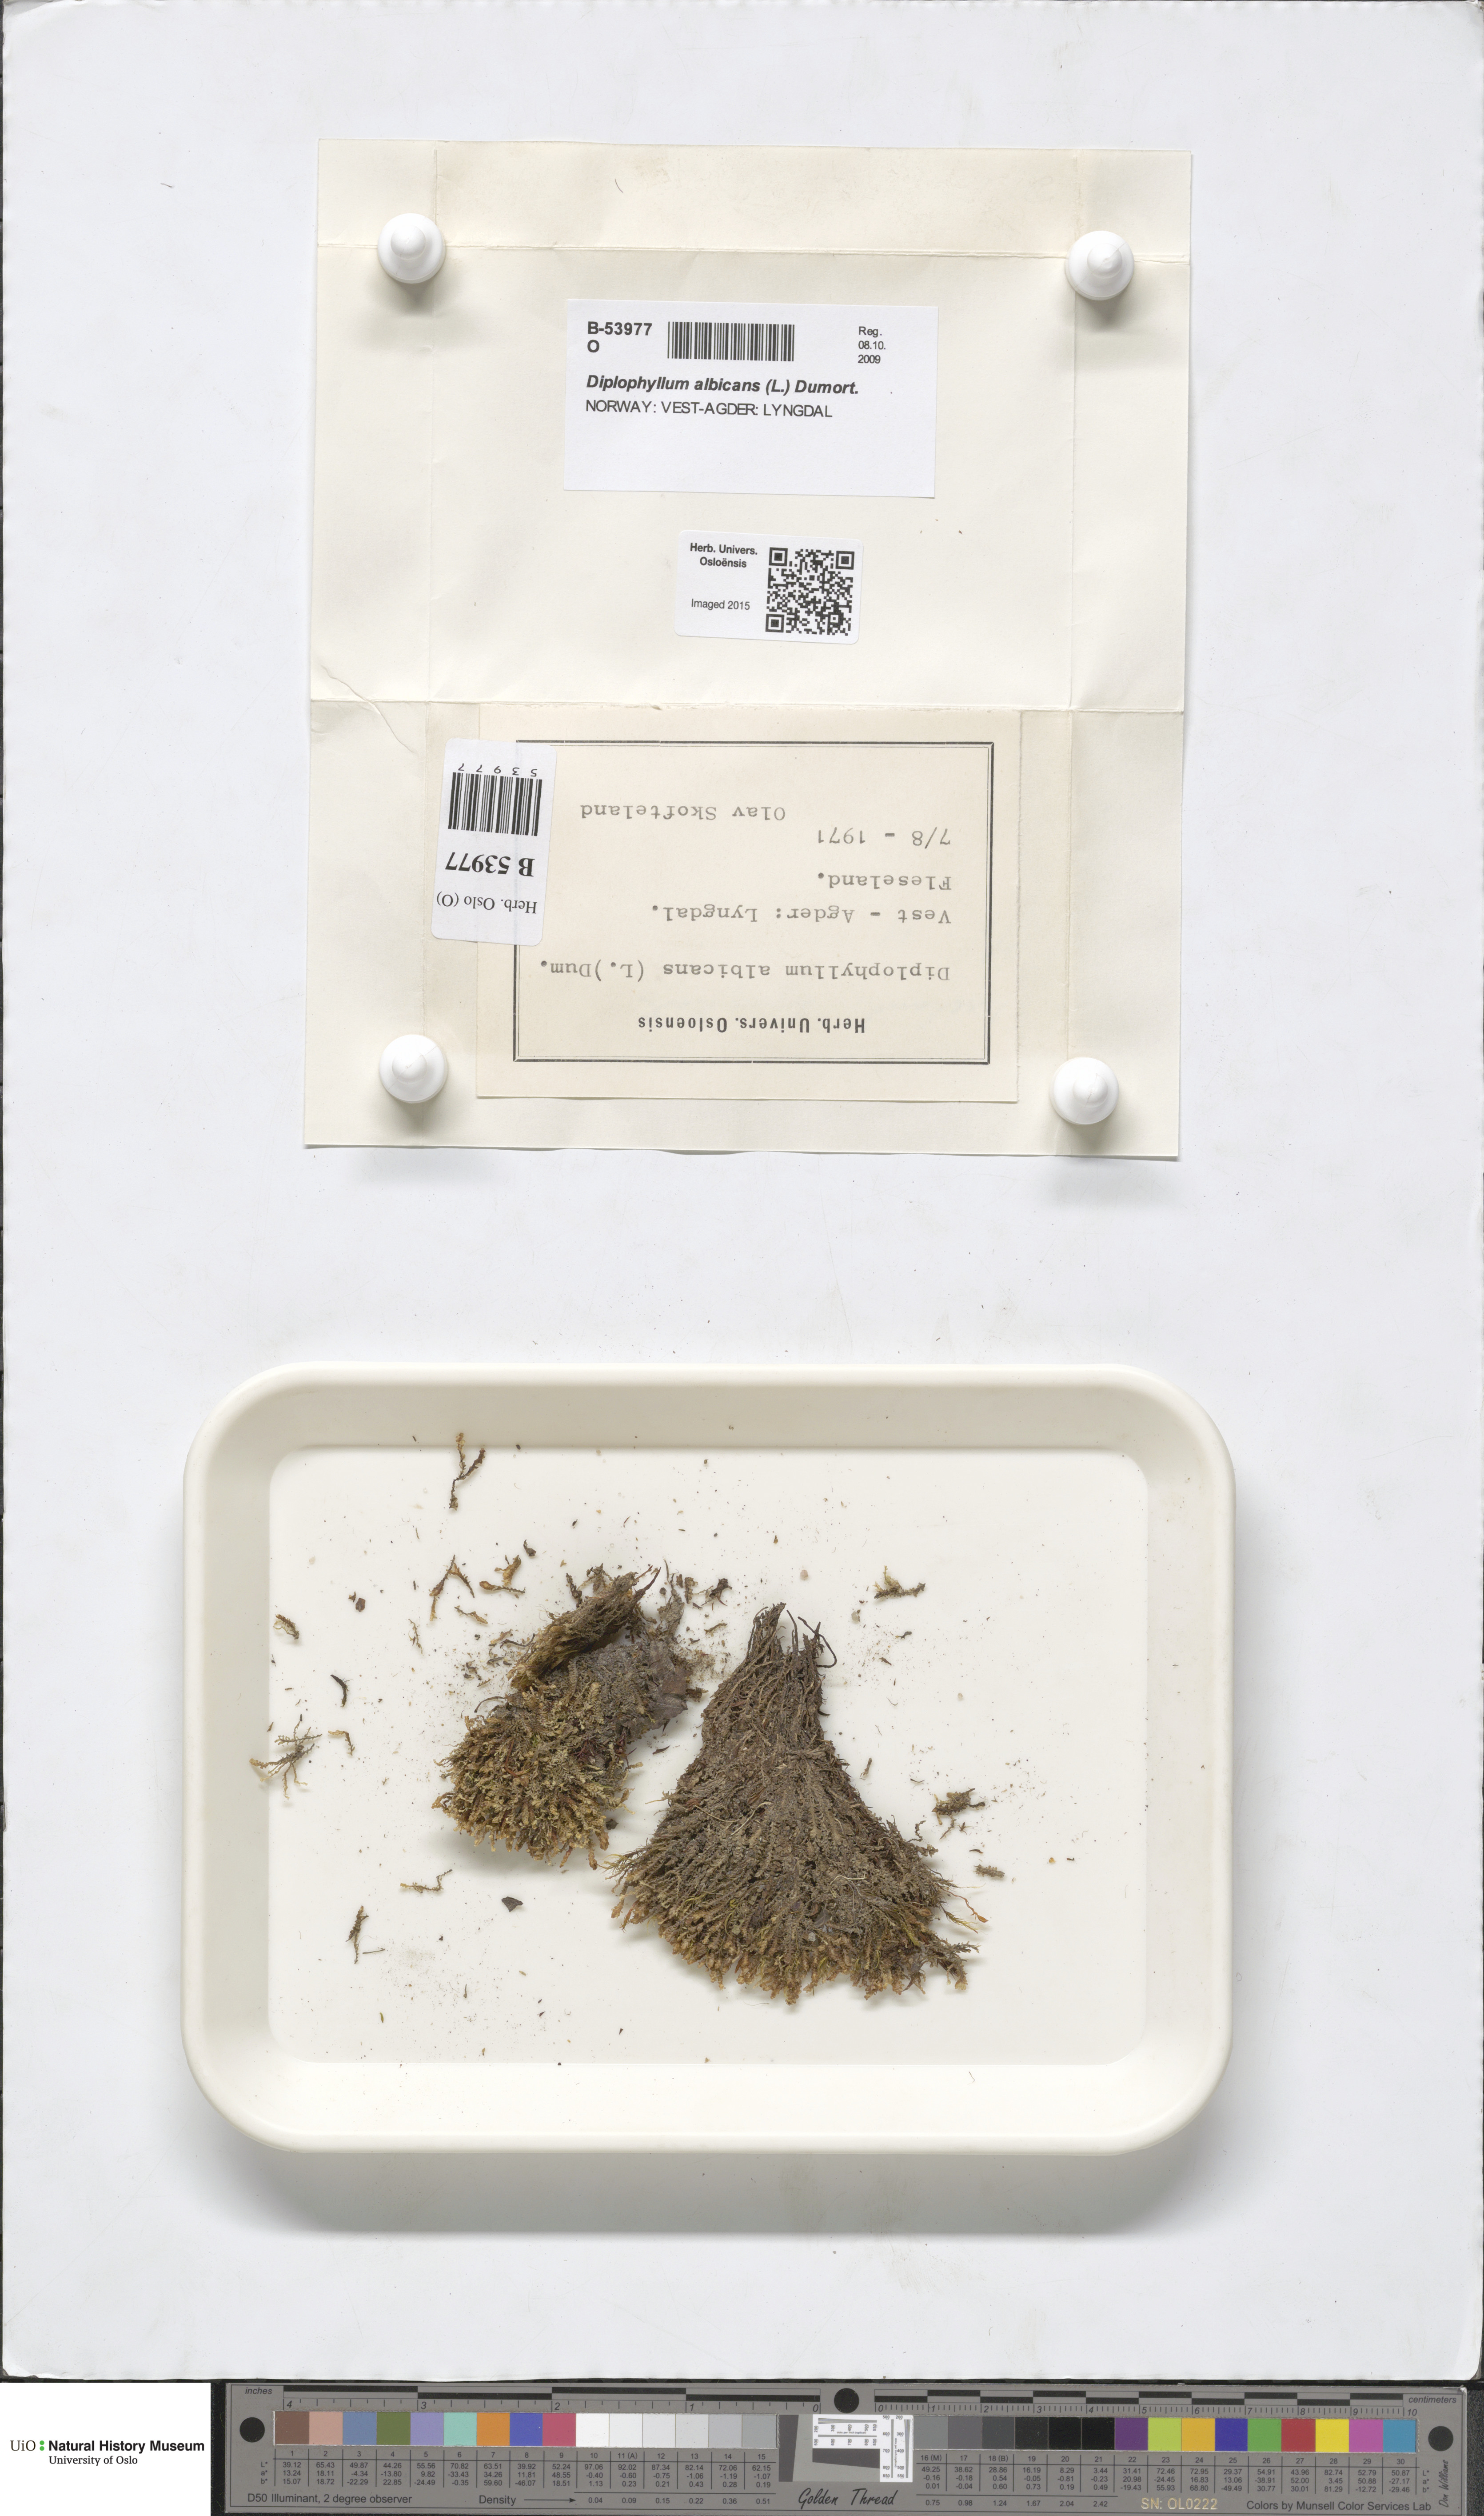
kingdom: Plantae
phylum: Marchantiophyta
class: Jungermanniopsida
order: Jungermanniales
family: Scapaniaceae
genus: Diplophyllum
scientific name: Diplophyllum albicans
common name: White earwort
